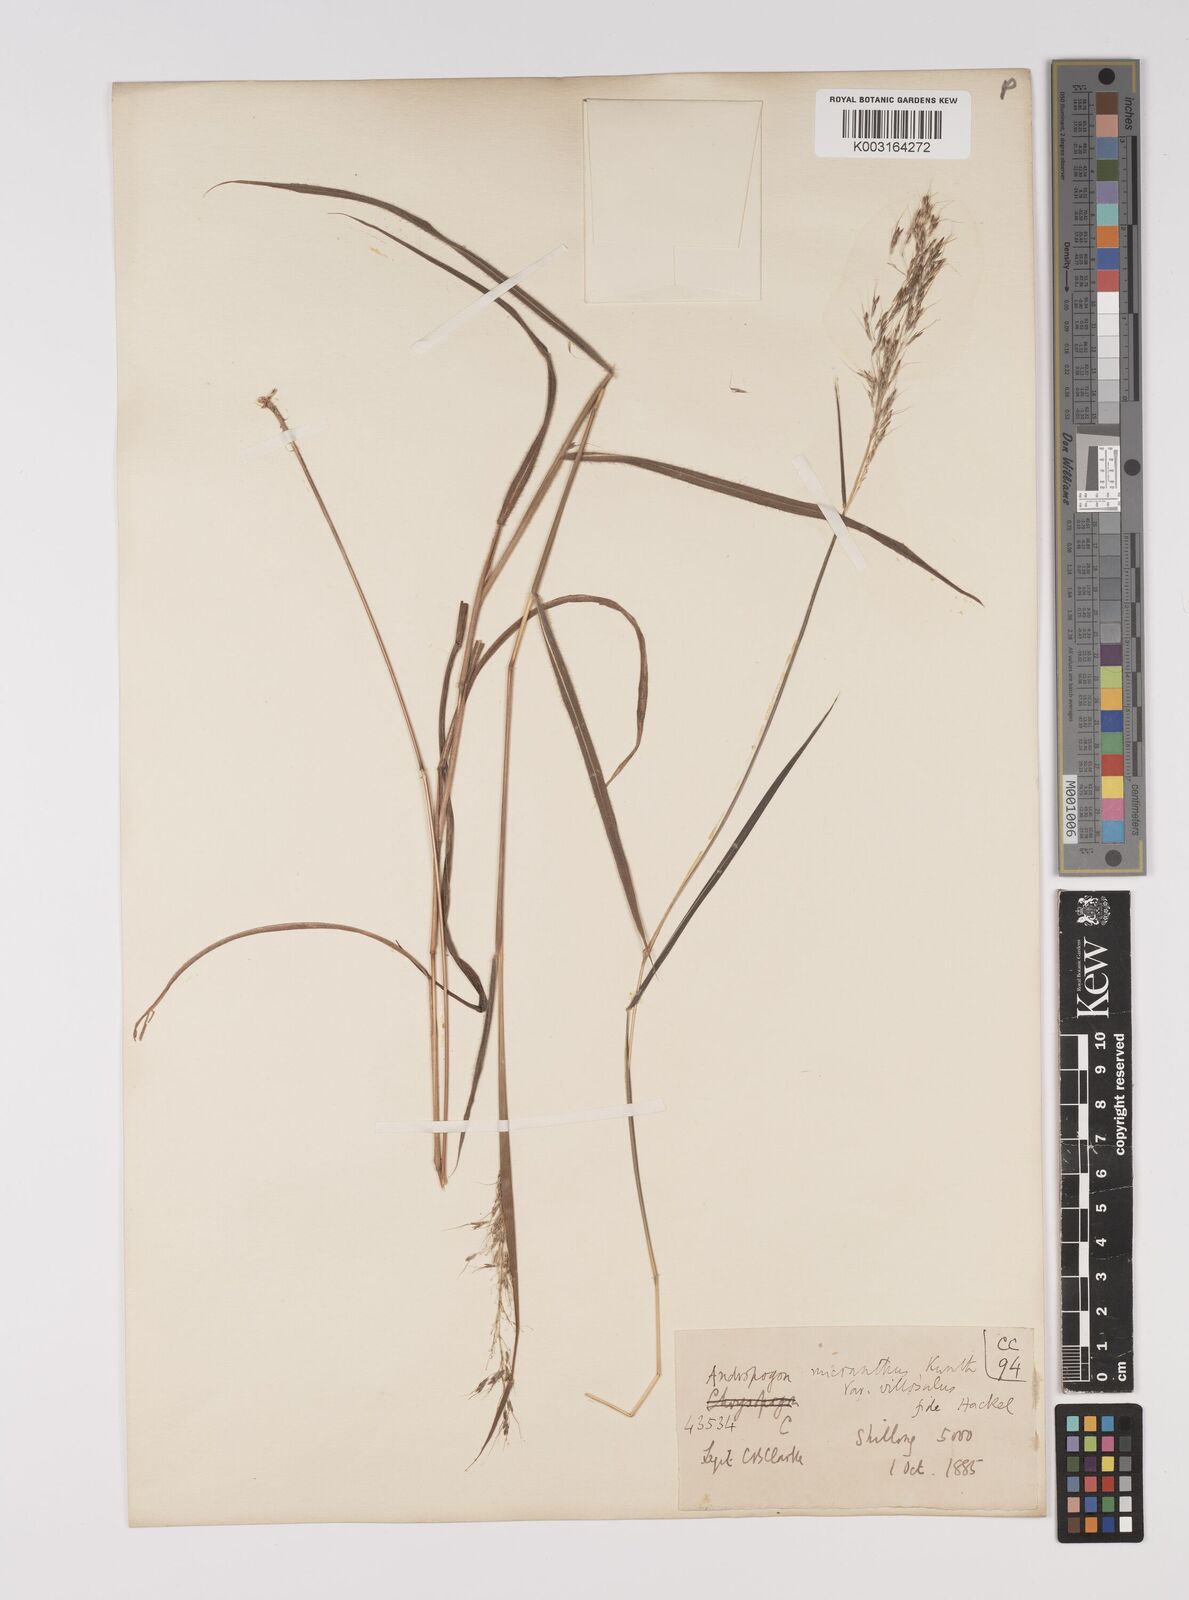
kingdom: Plantae
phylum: Tracheophyta
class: Liliopsida
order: Poales
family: Poaceae
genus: Capillipedium
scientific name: Capillipedium parviflorum
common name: Golden-beard
